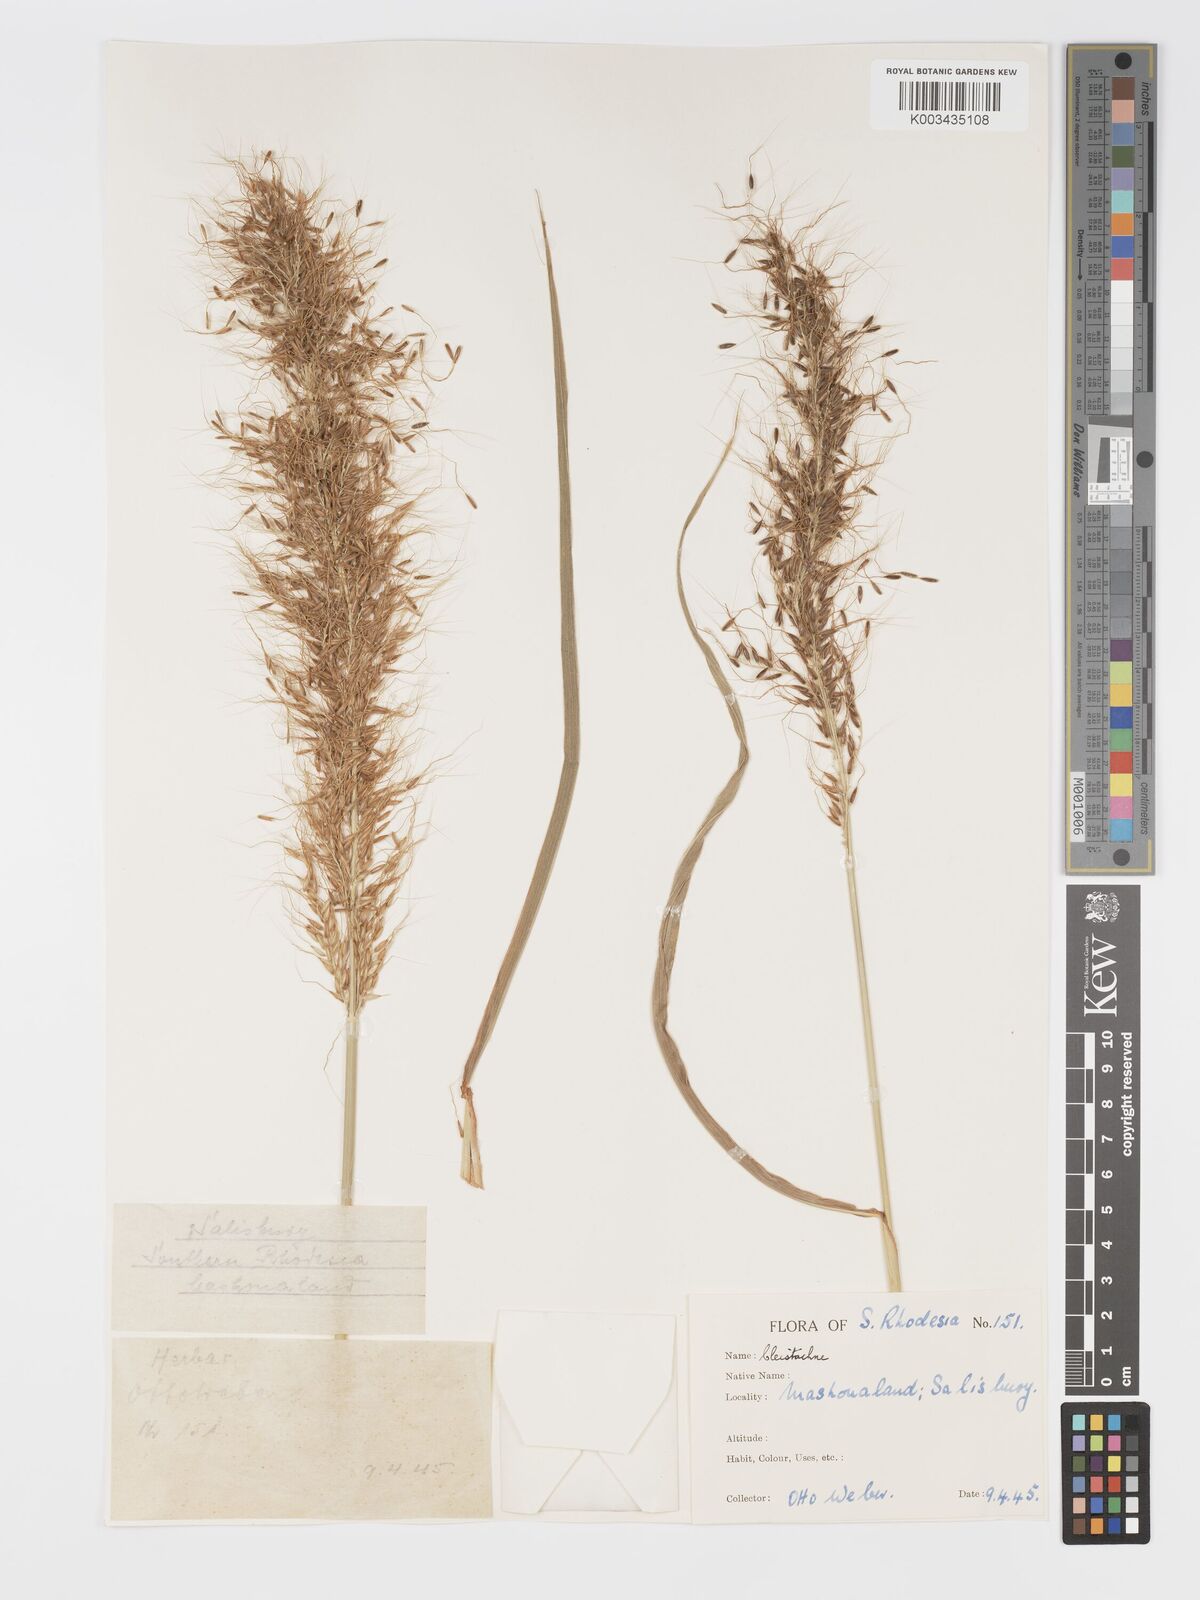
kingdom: Plantae
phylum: Tracheophyta
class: Liliopsida
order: Poales
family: Poaceae
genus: Cleistachne
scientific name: Cleistachne sorghoides
